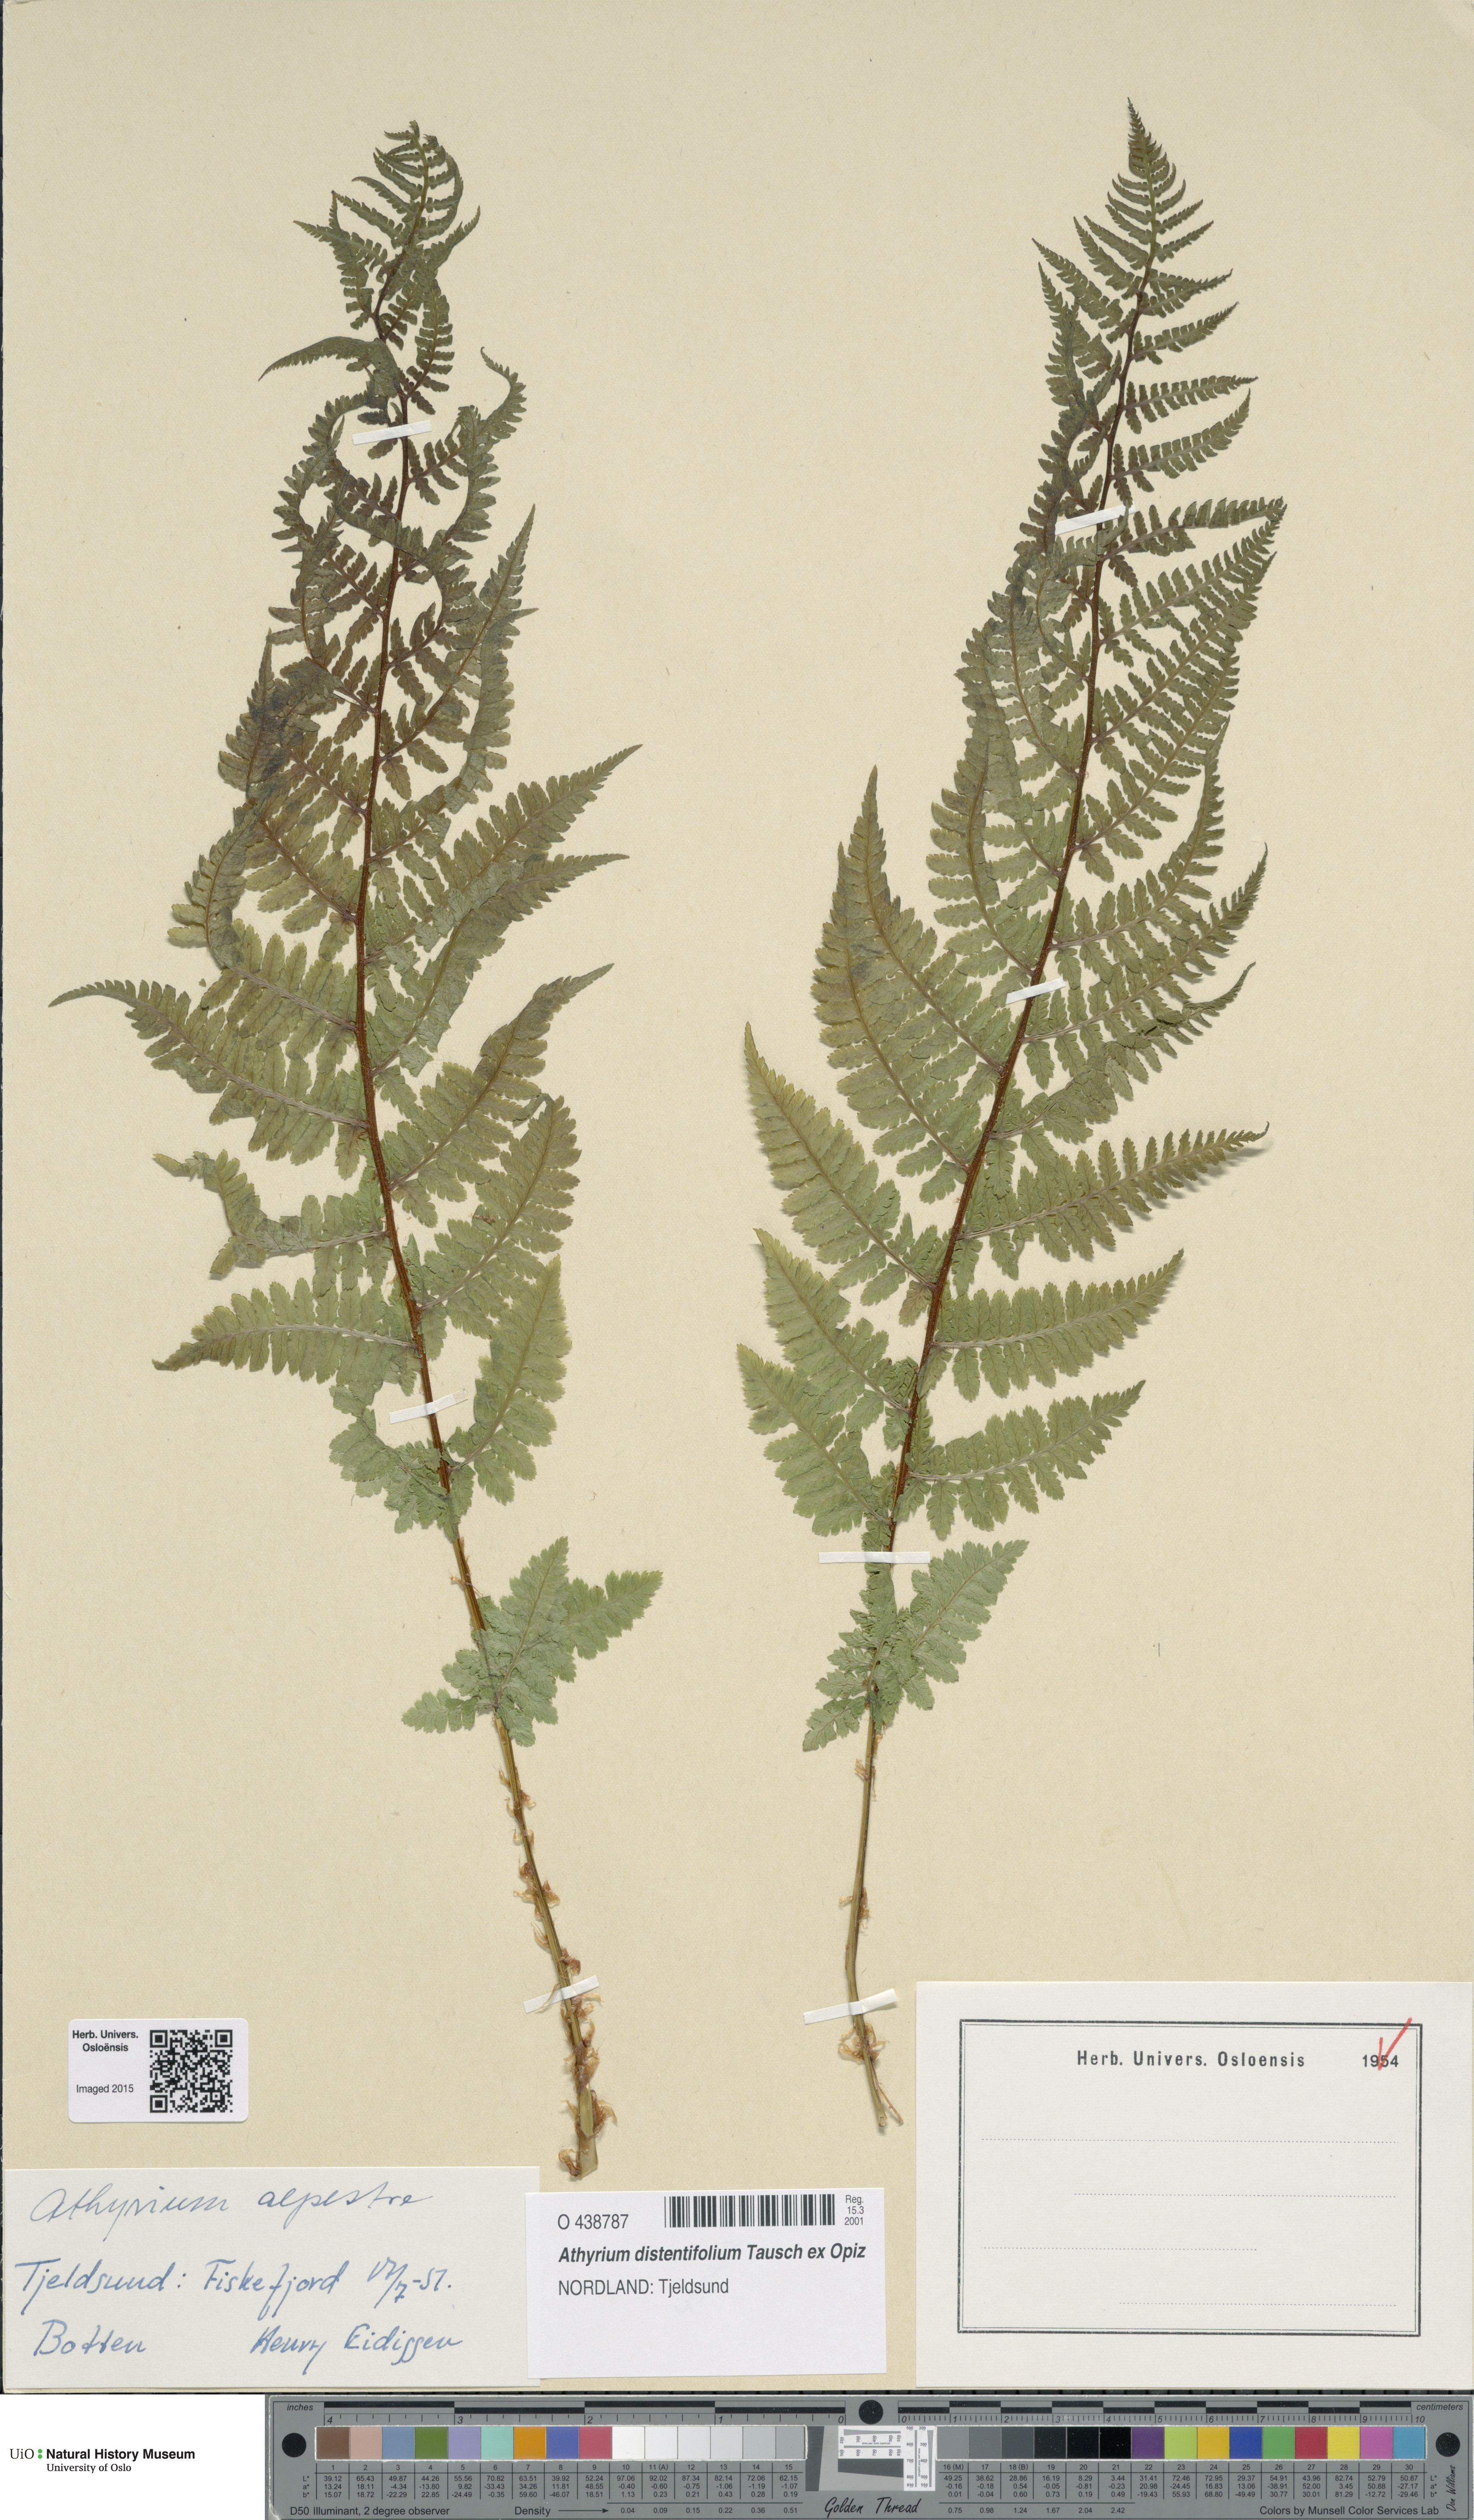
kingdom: Plantae
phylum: Tracheophyta
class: Polypodiopsida
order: Polypodiales
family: Athyriaceae
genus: Pseudathyrium
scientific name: Pseudathyrium alpestre
